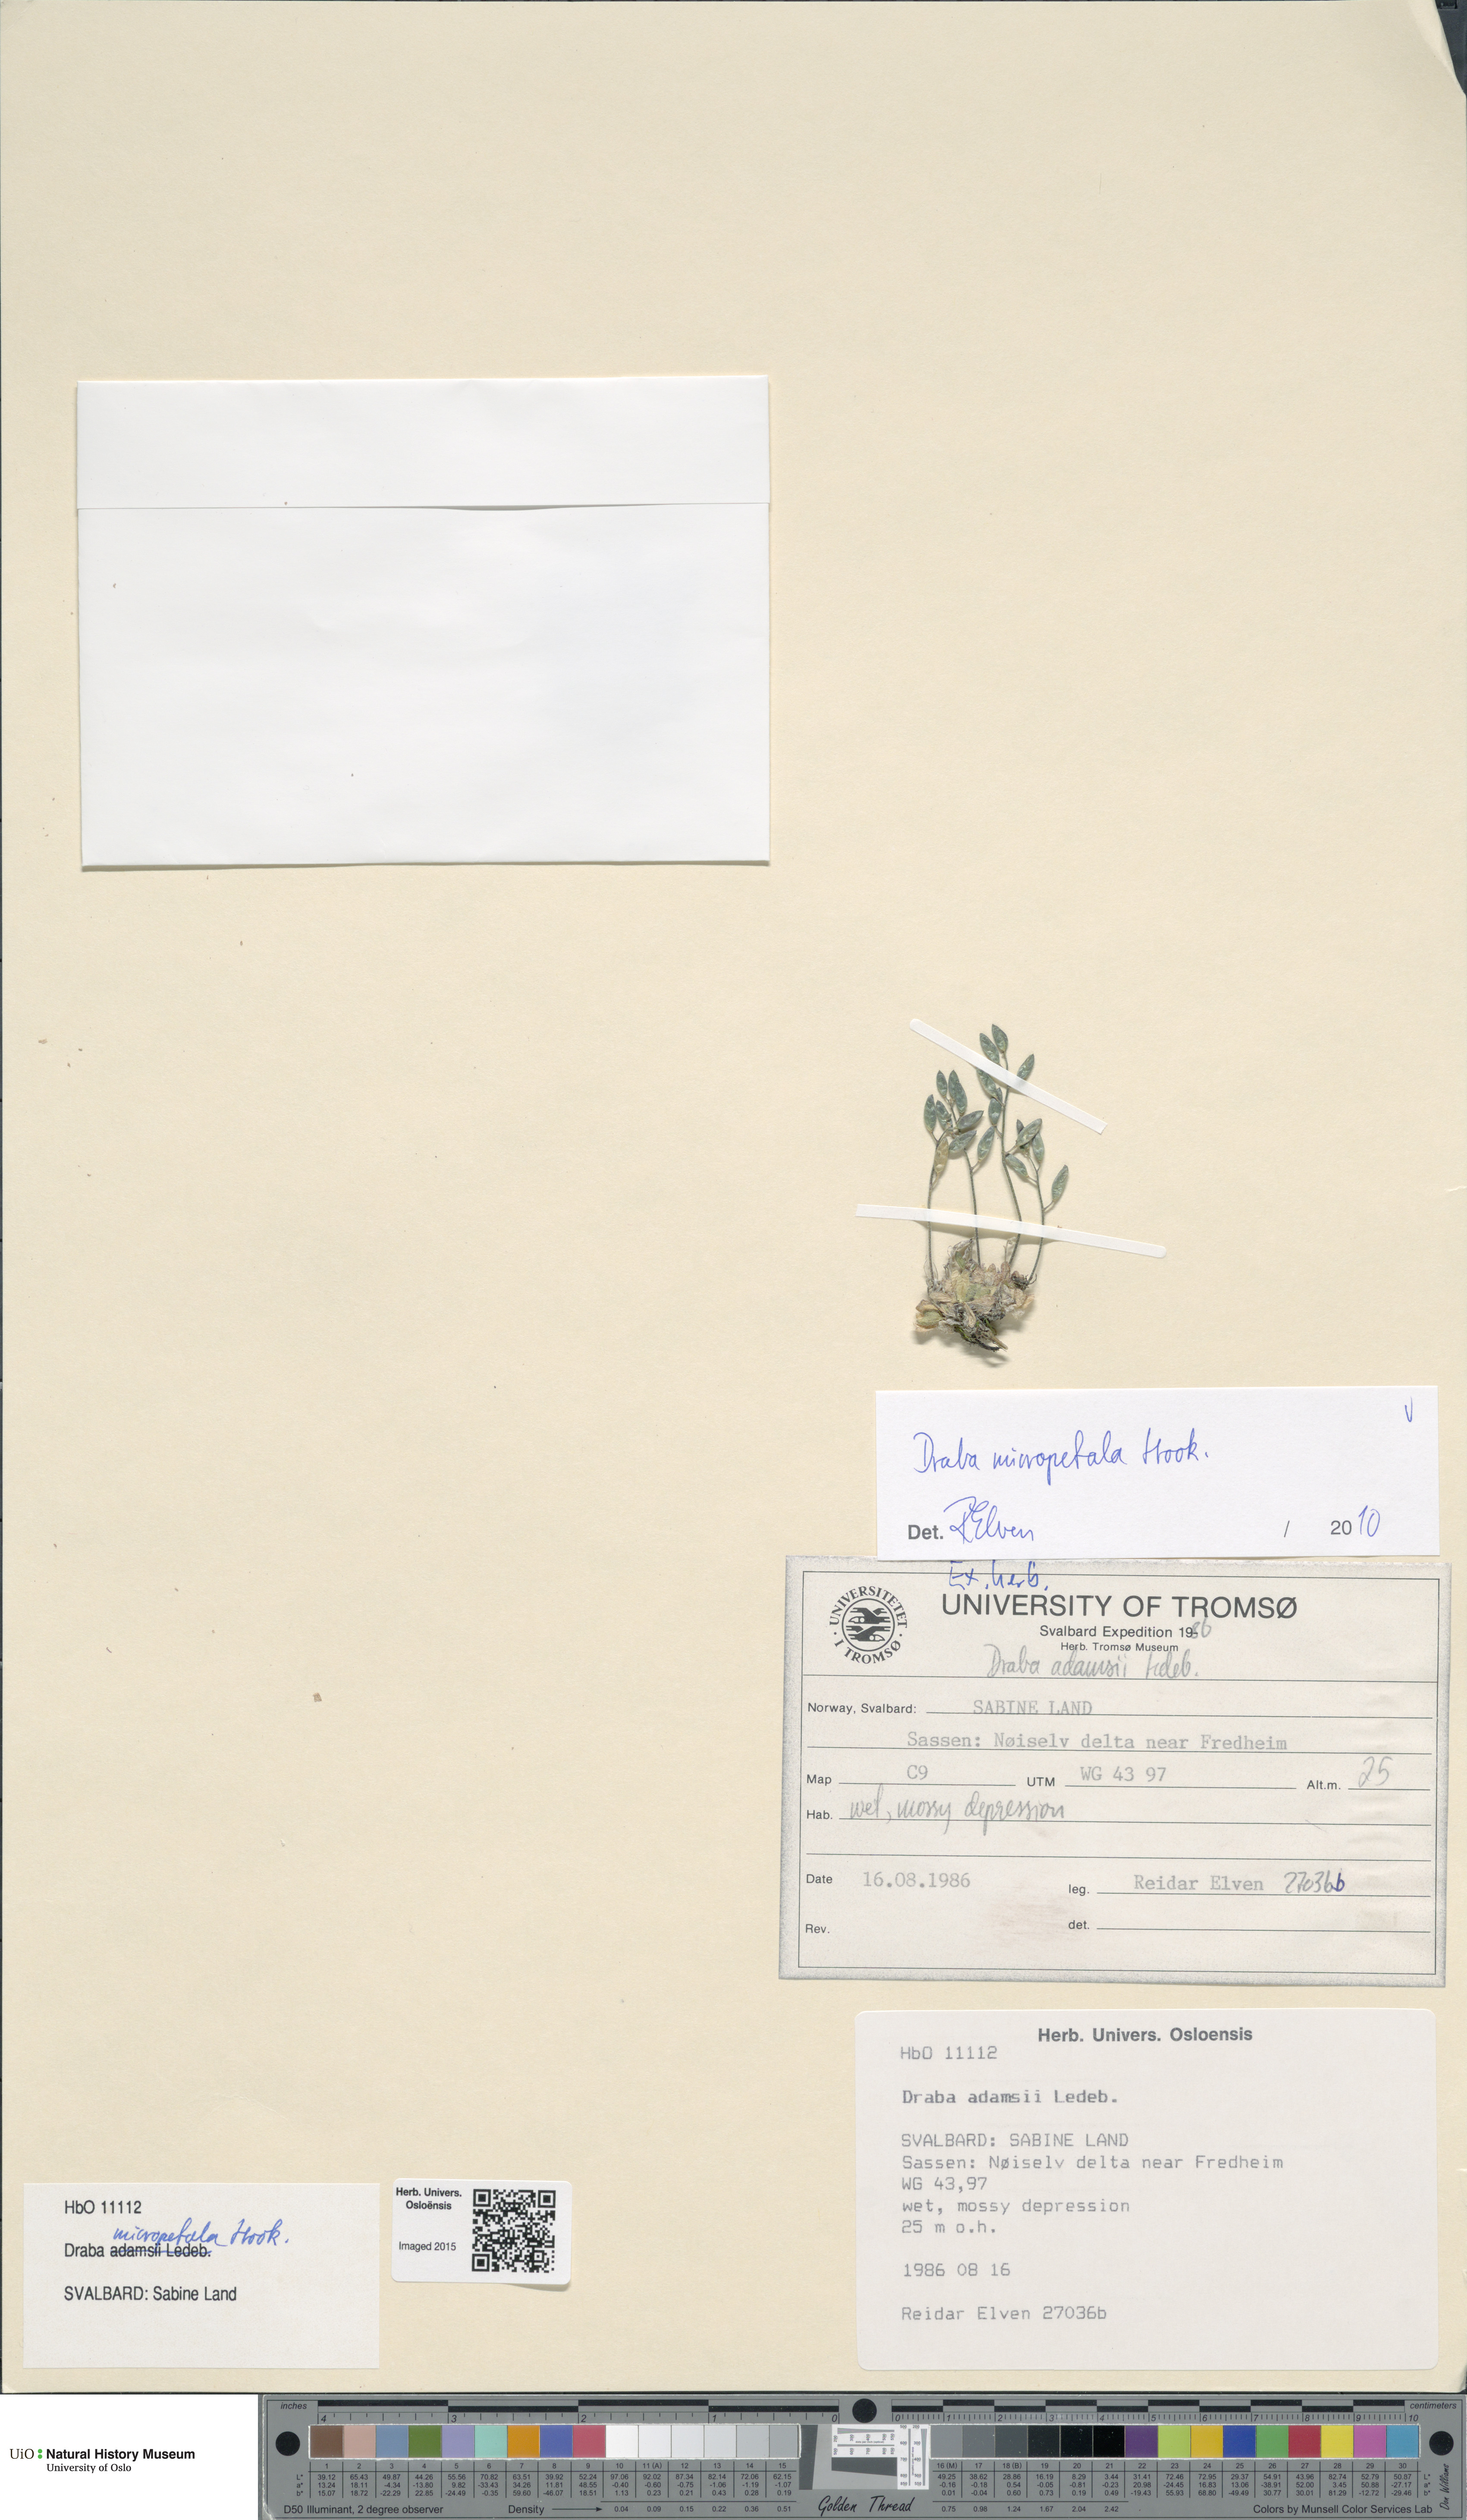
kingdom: Plantae
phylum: Tracheophyta
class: Magnoliopsida
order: Brassicales
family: Brassicaceae
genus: Draba
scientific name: Draba micropetala
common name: Small-flowered draba
